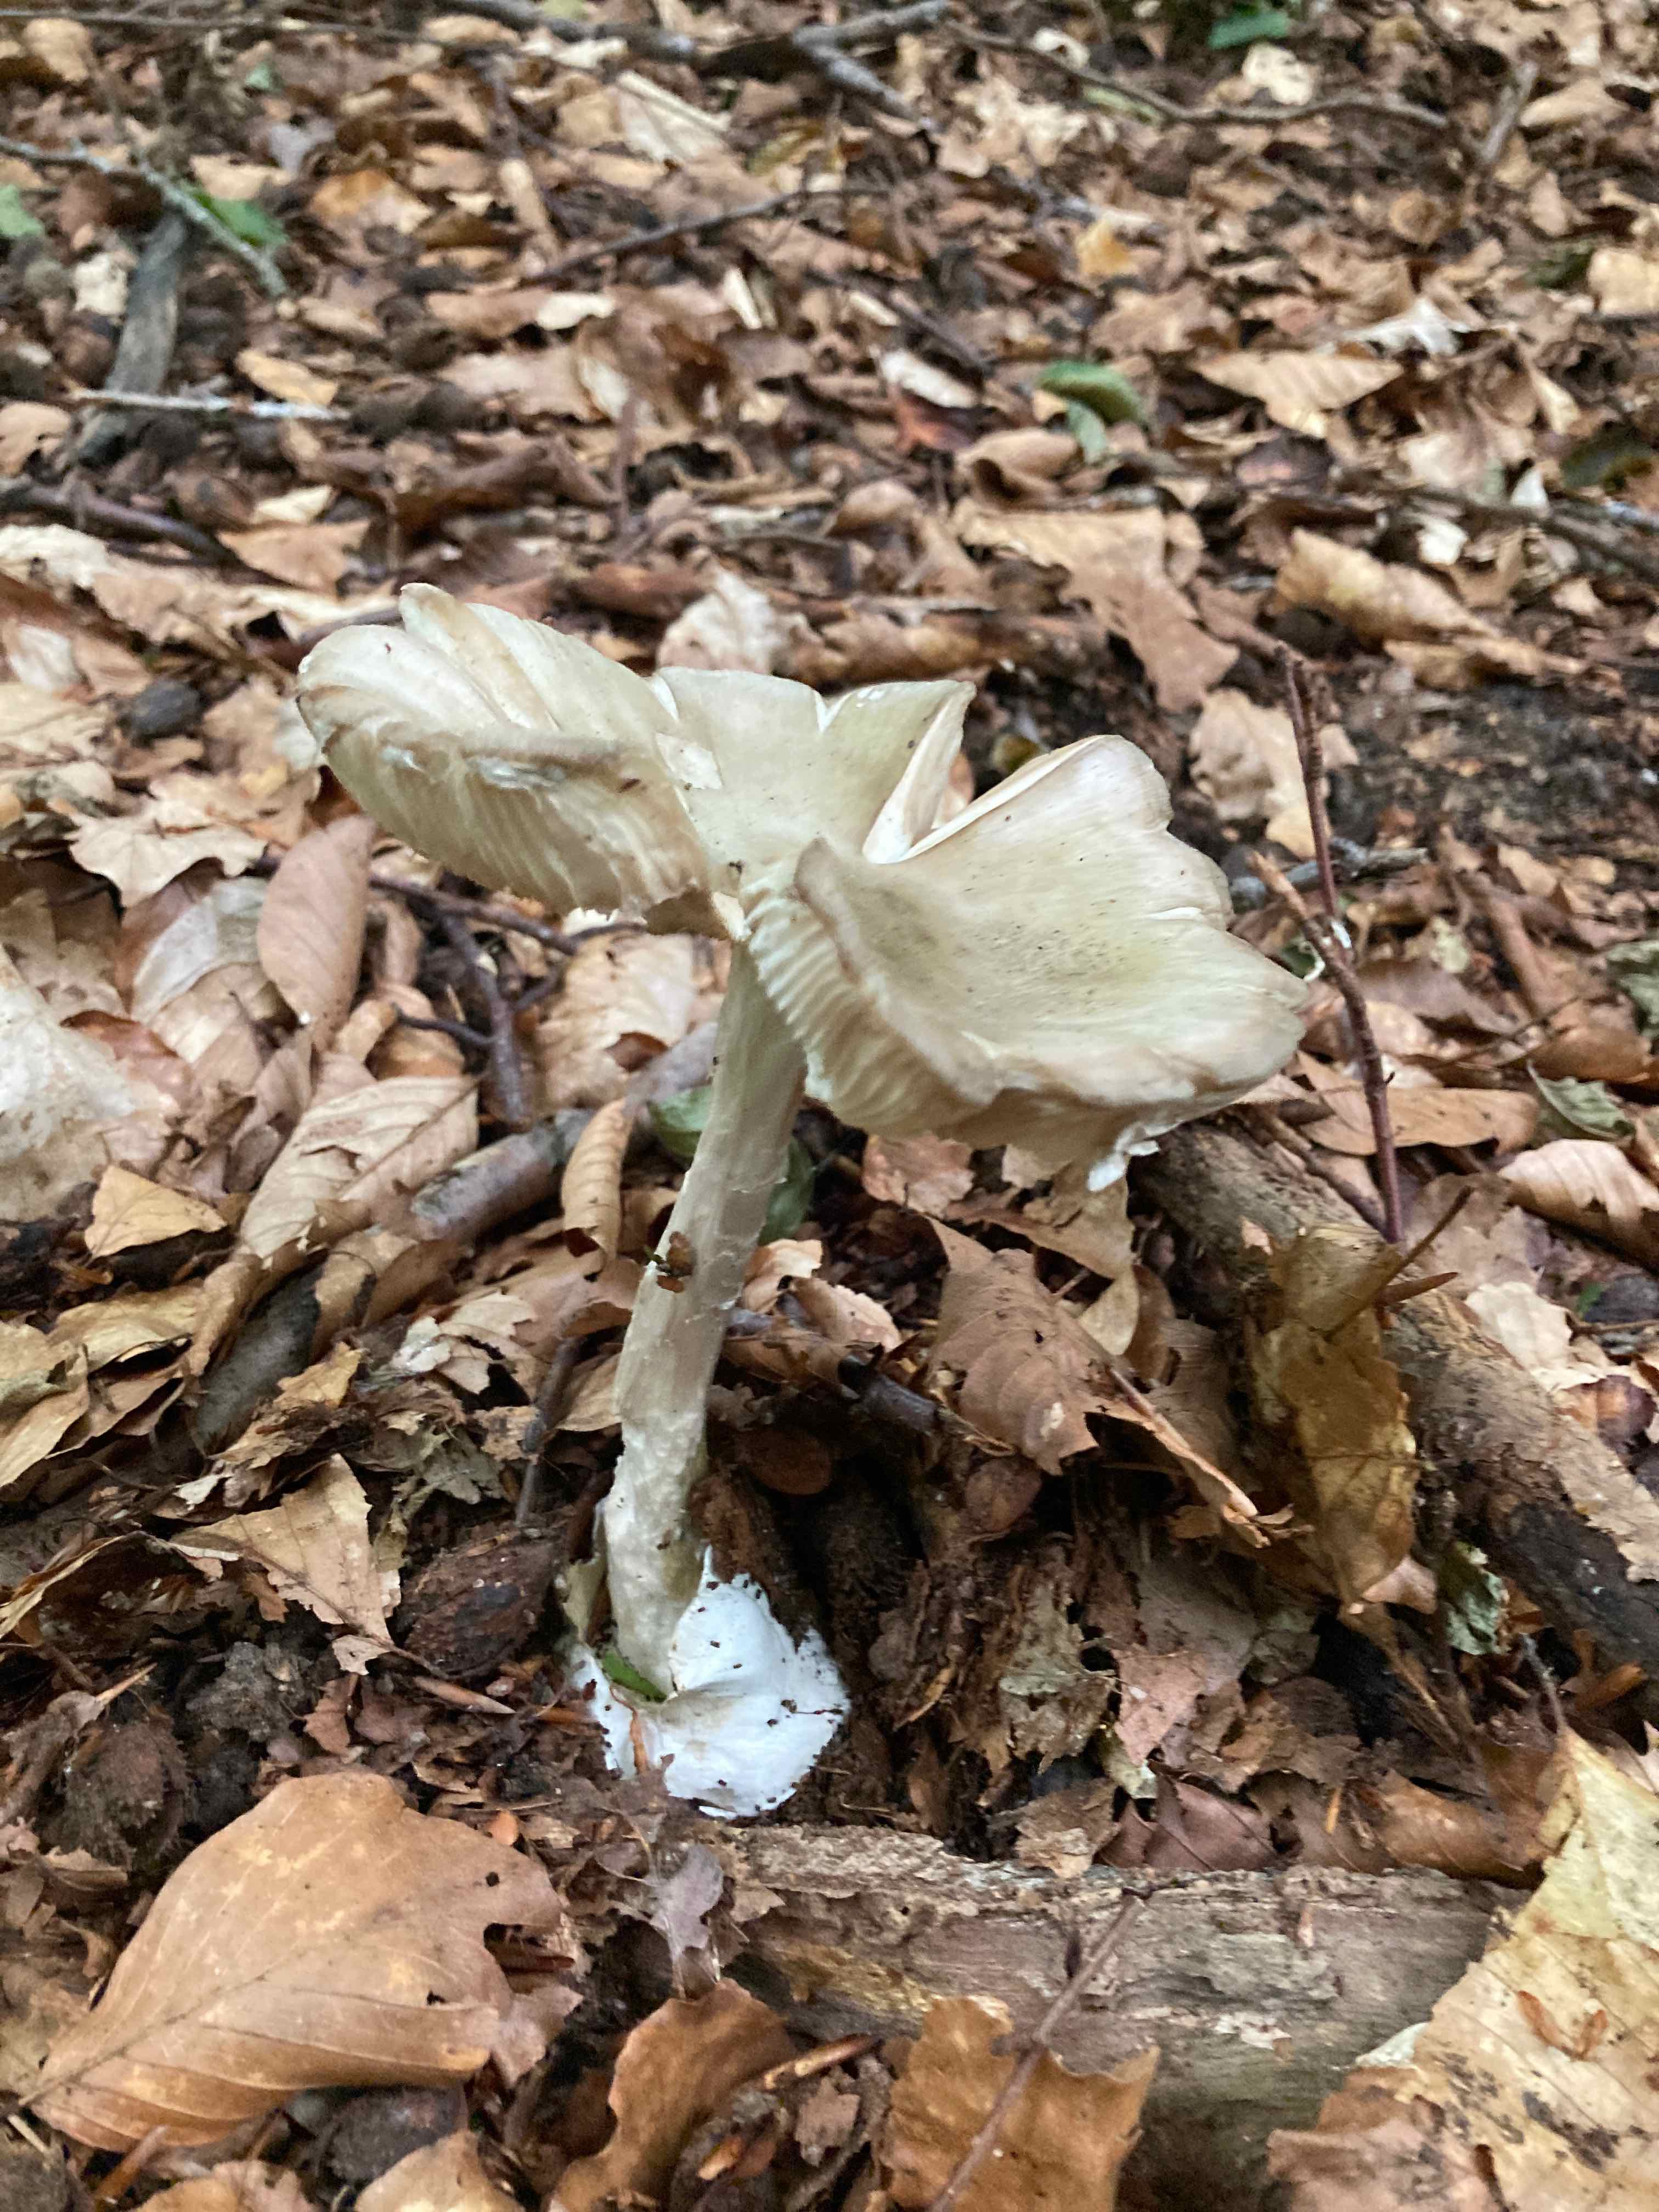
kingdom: Fungi
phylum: Basidiomycota
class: Agaricomycetes
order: Agaricales
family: Amanitaceae
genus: Amanita
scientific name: Amanita phalloides
